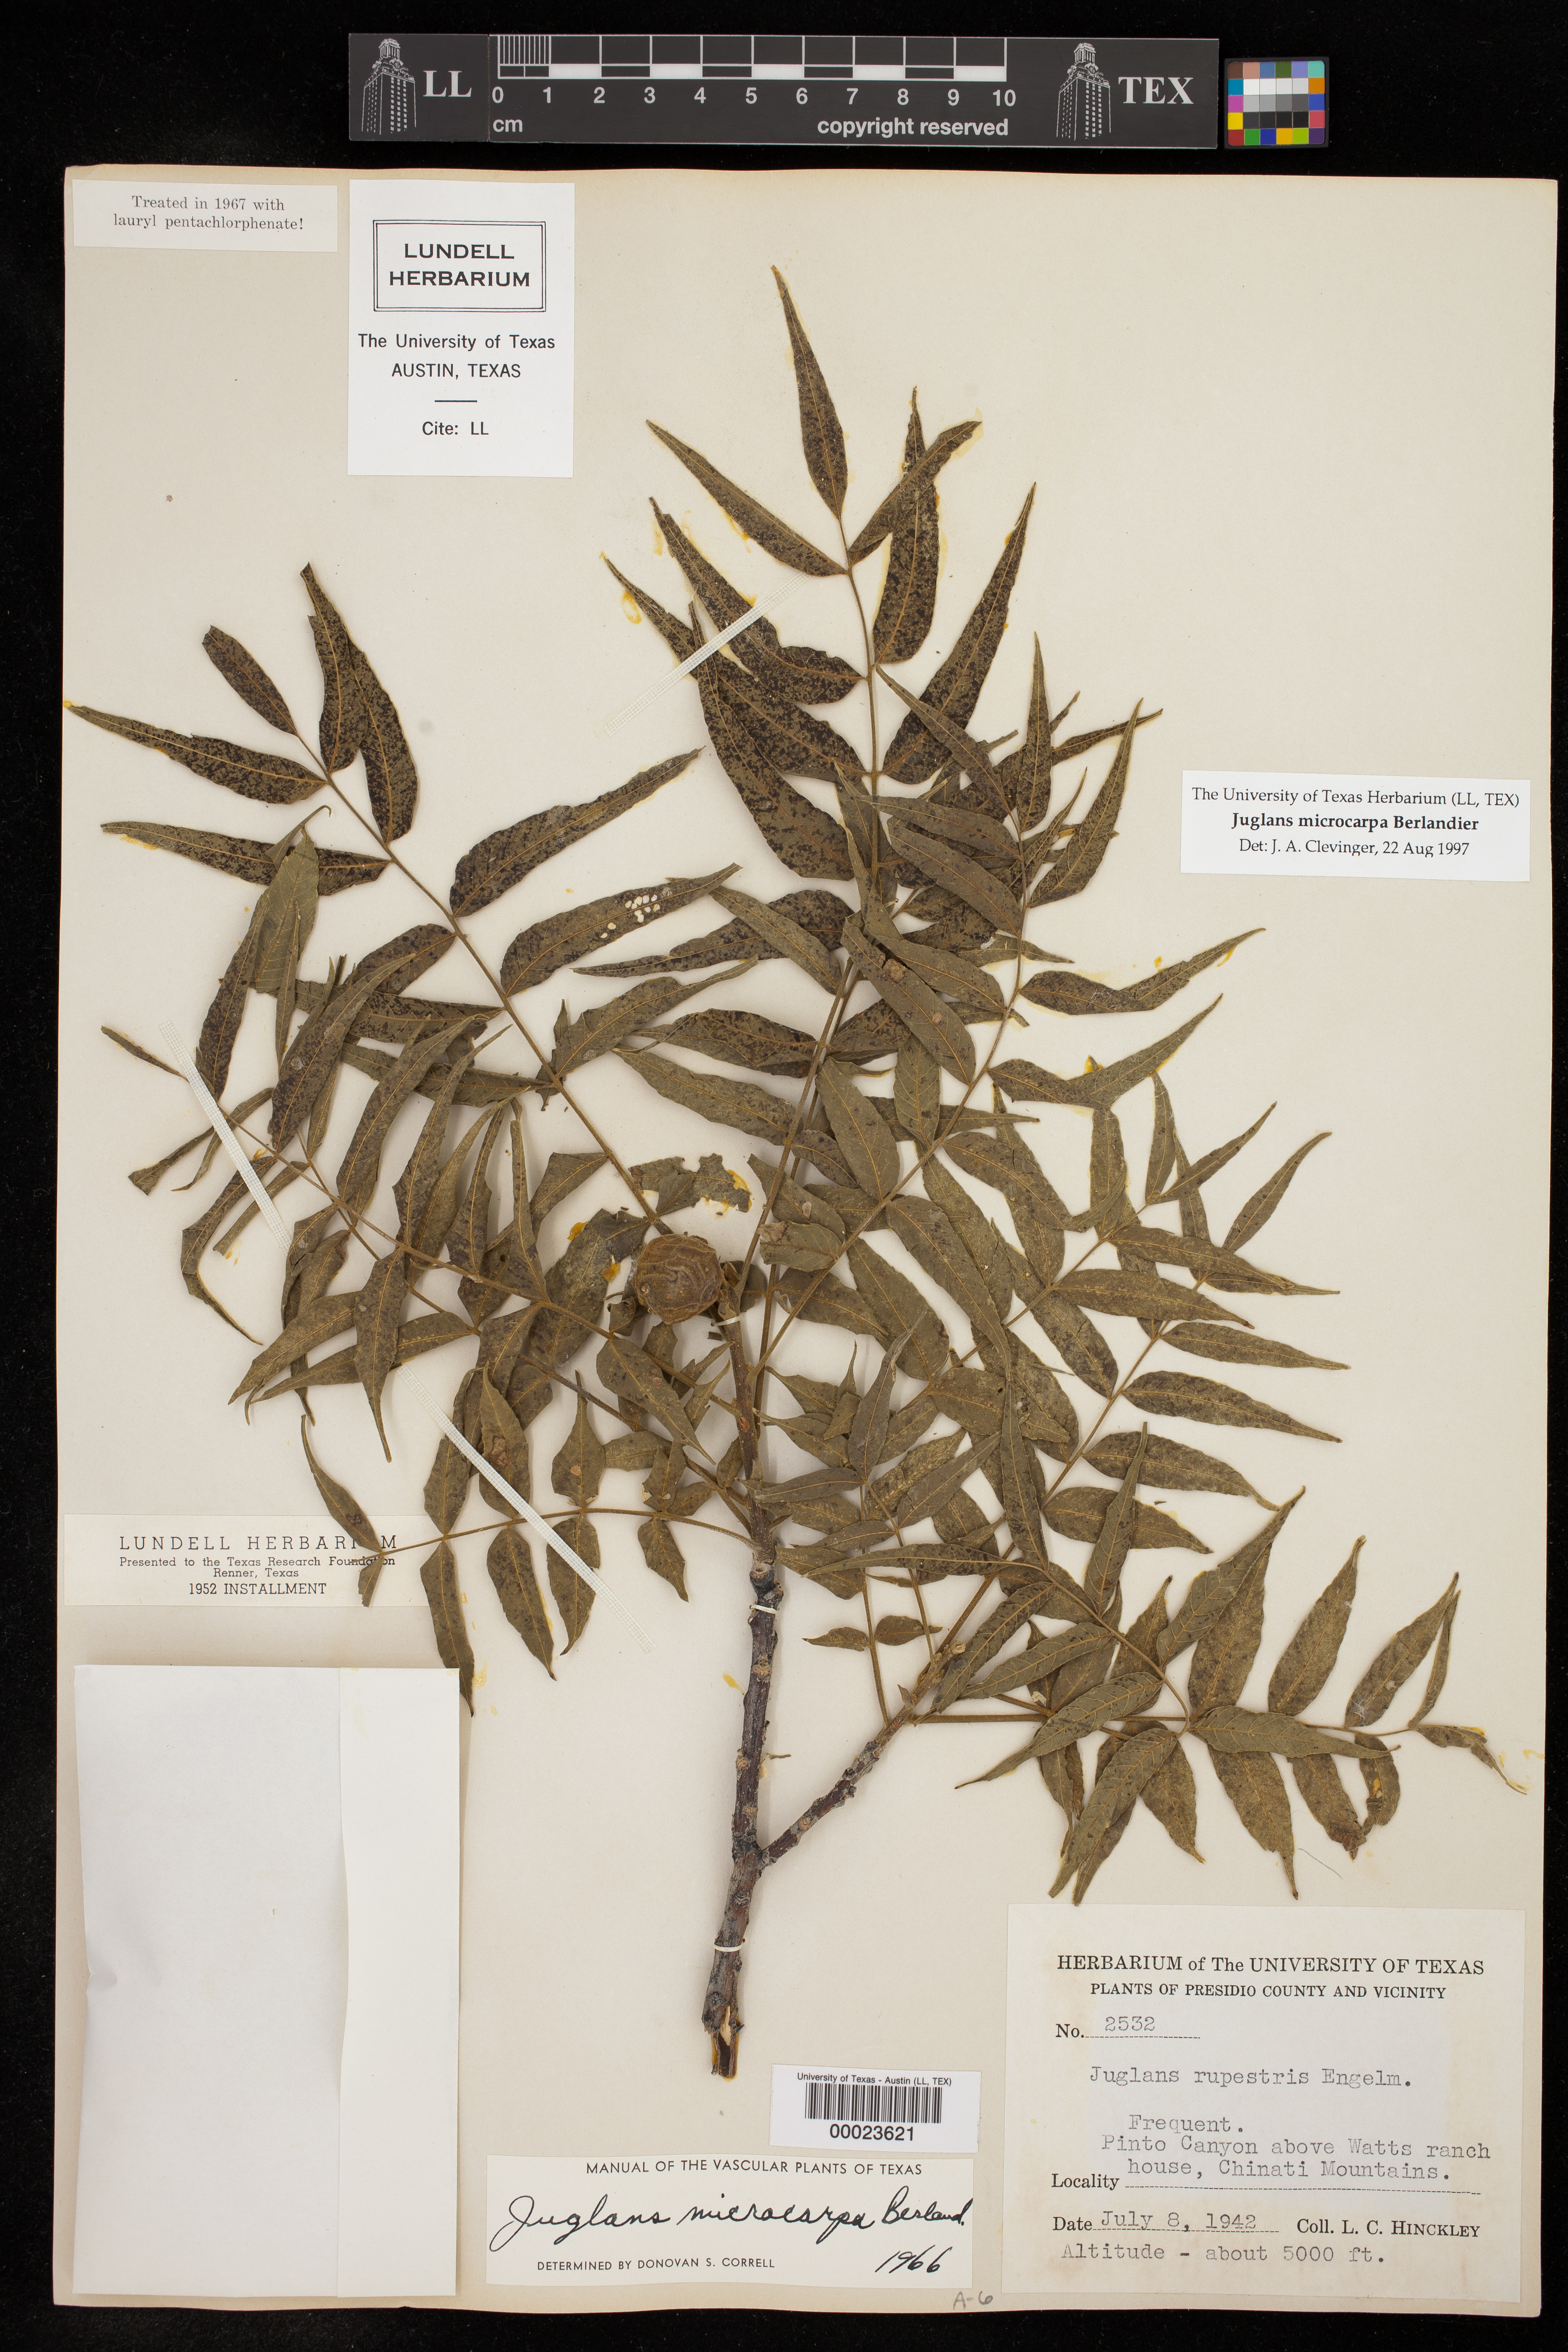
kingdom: Plantae
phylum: Tracheophyta
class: Magnoliopsida
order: Fagales
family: Juglandaceae
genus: Juglans
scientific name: Juglans microcarpa
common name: Texas walnut
